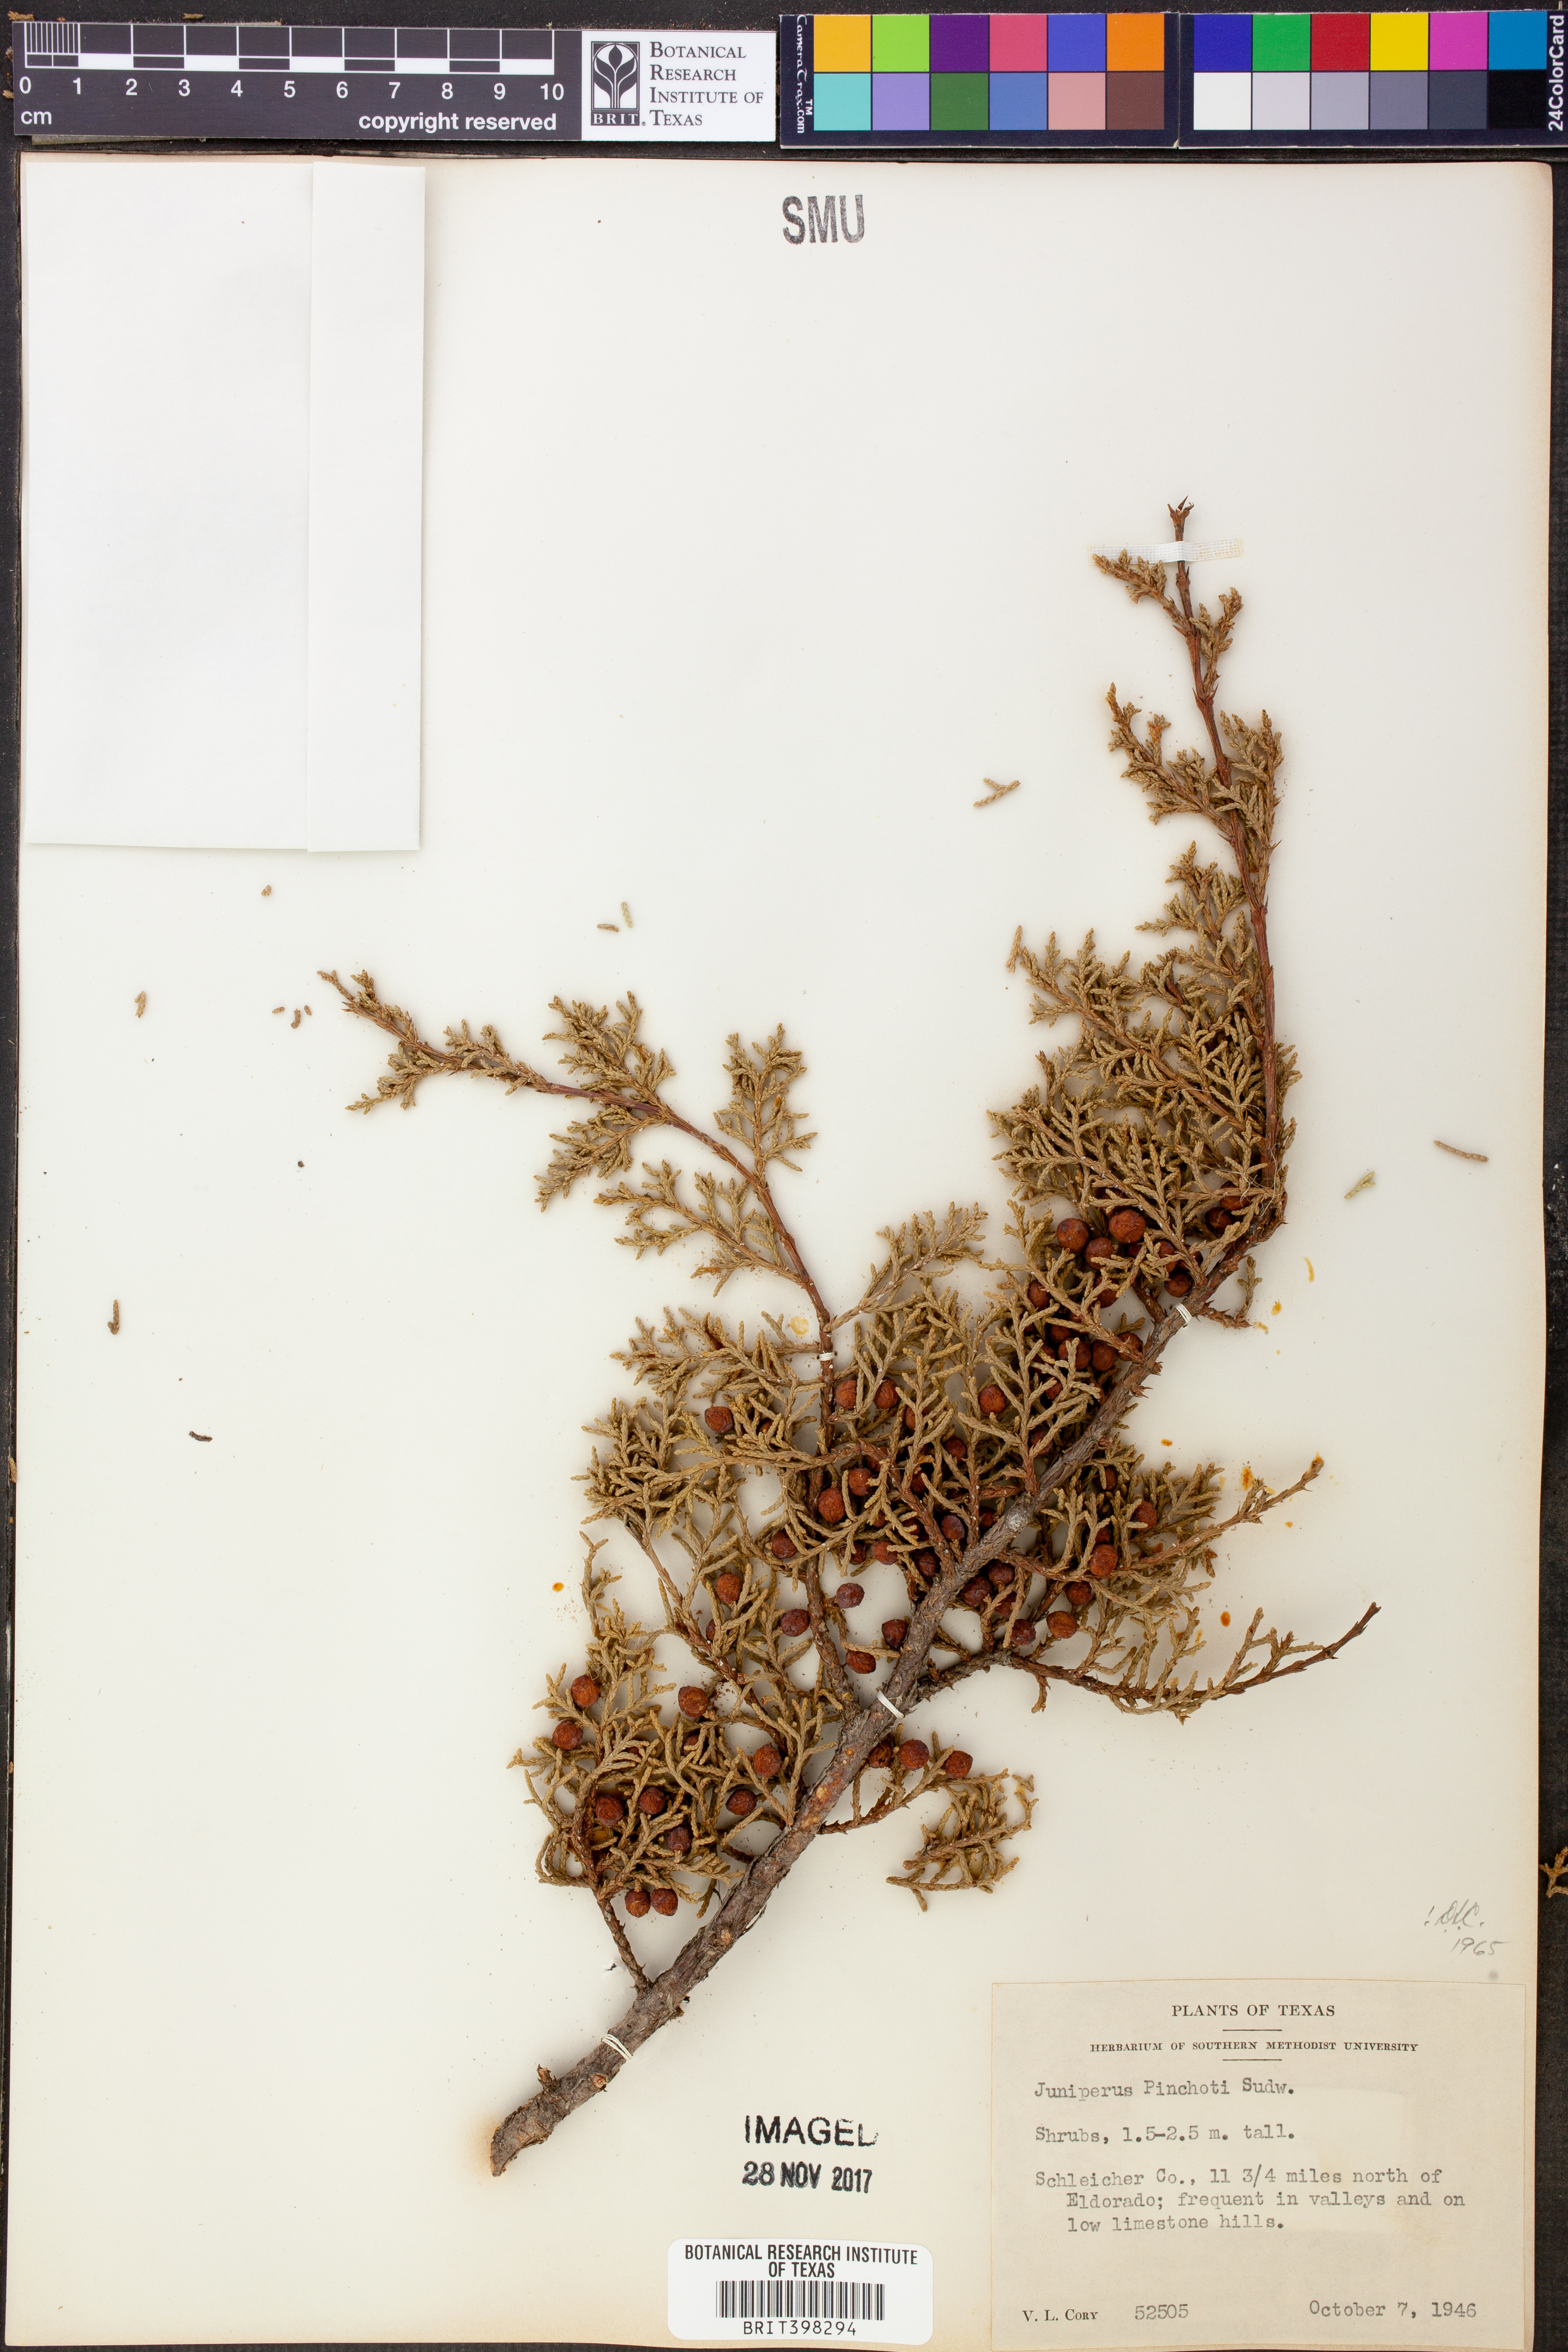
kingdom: Plantae
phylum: Tracheophyta
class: Pinopsida
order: Pinales
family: Cupressaceae
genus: Juniperus
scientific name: Juniperus pinchotii
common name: Pinchot juniper
